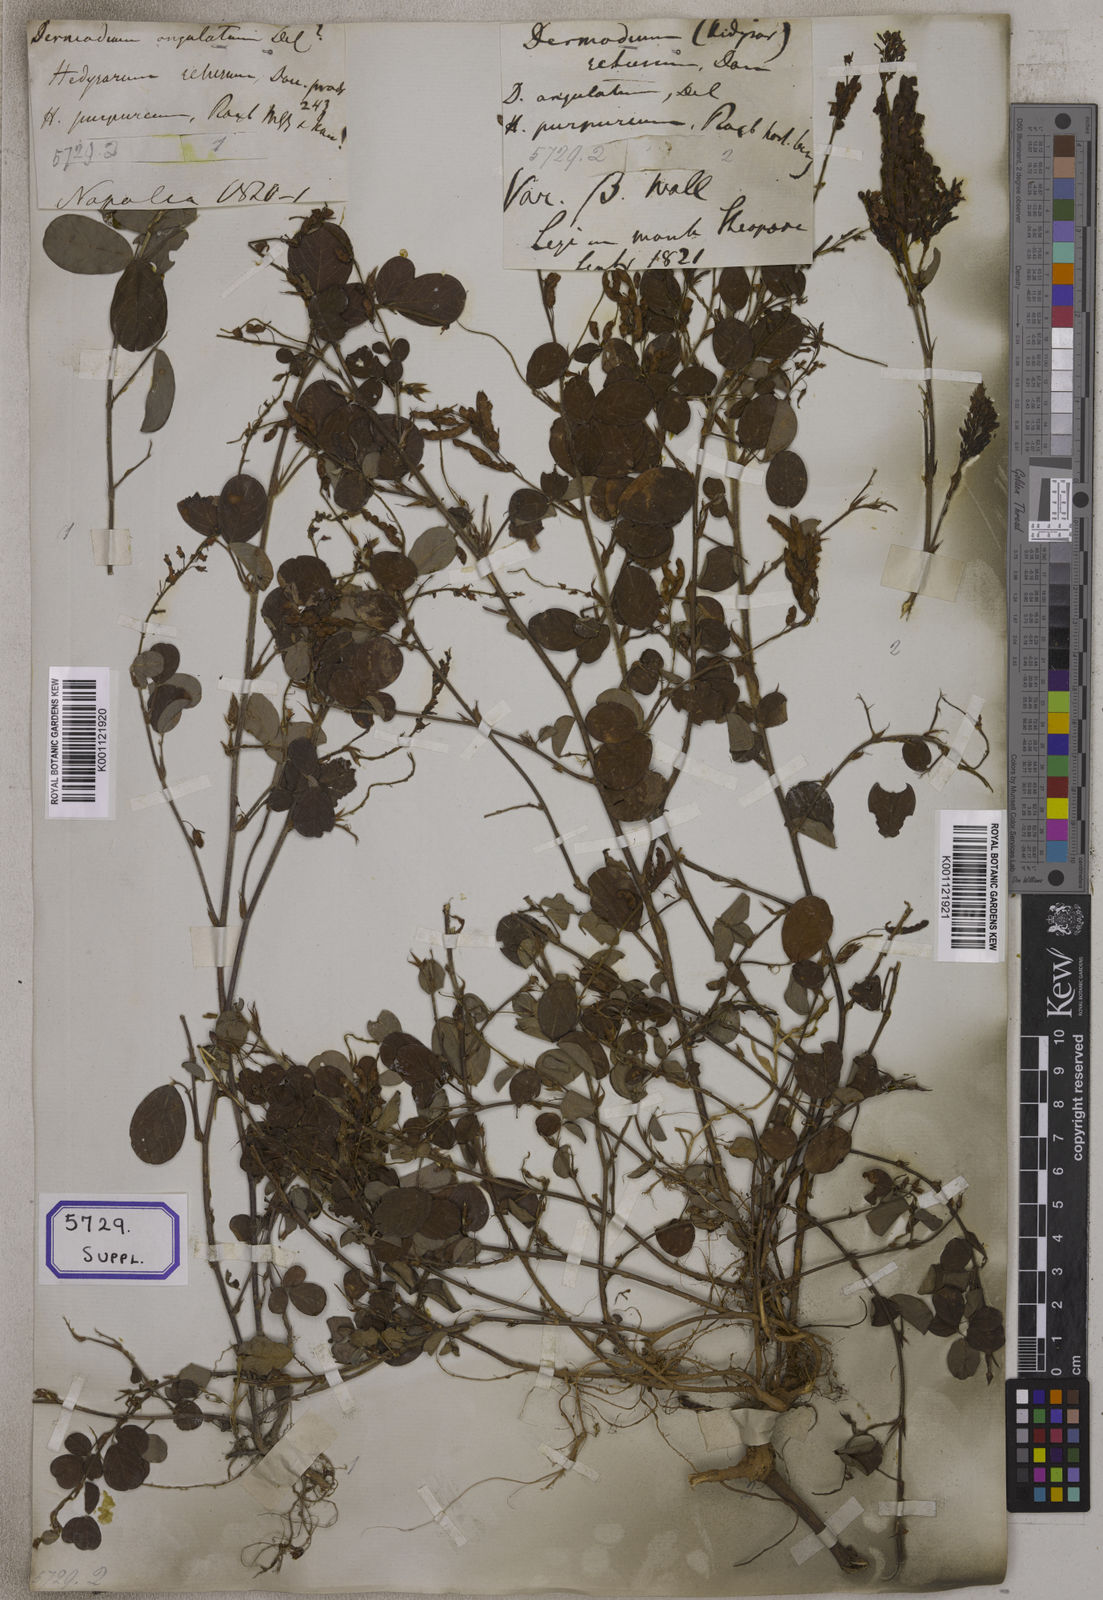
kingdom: Plantae
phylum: Tracheophyta
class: Magnoliopsida
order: Fabales
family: Fabaceae
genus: Desmodium
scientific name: Desmodium
